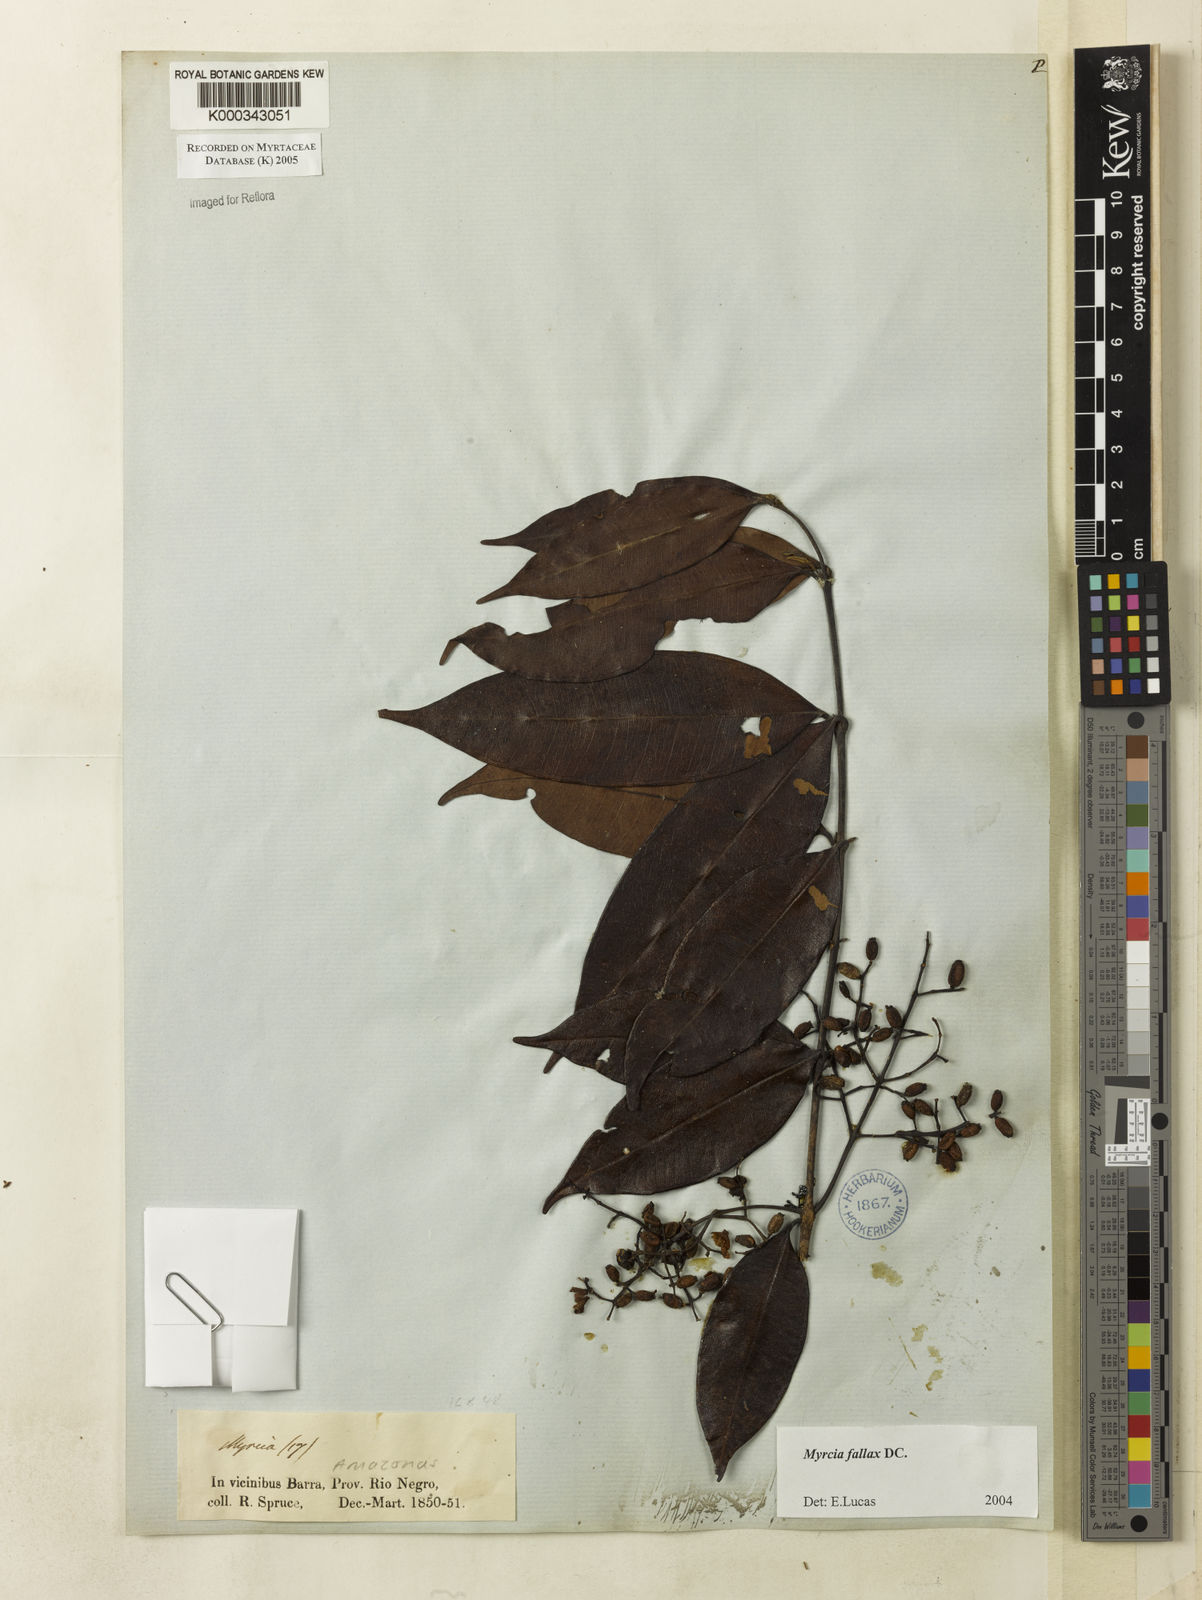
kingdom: Plantae
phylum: Tracheophyta
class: Magnoliopsida
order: Myrtales
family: Myrtaceae
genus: Myrcia
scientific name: Myrcia splendens
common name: Surinam cherry
